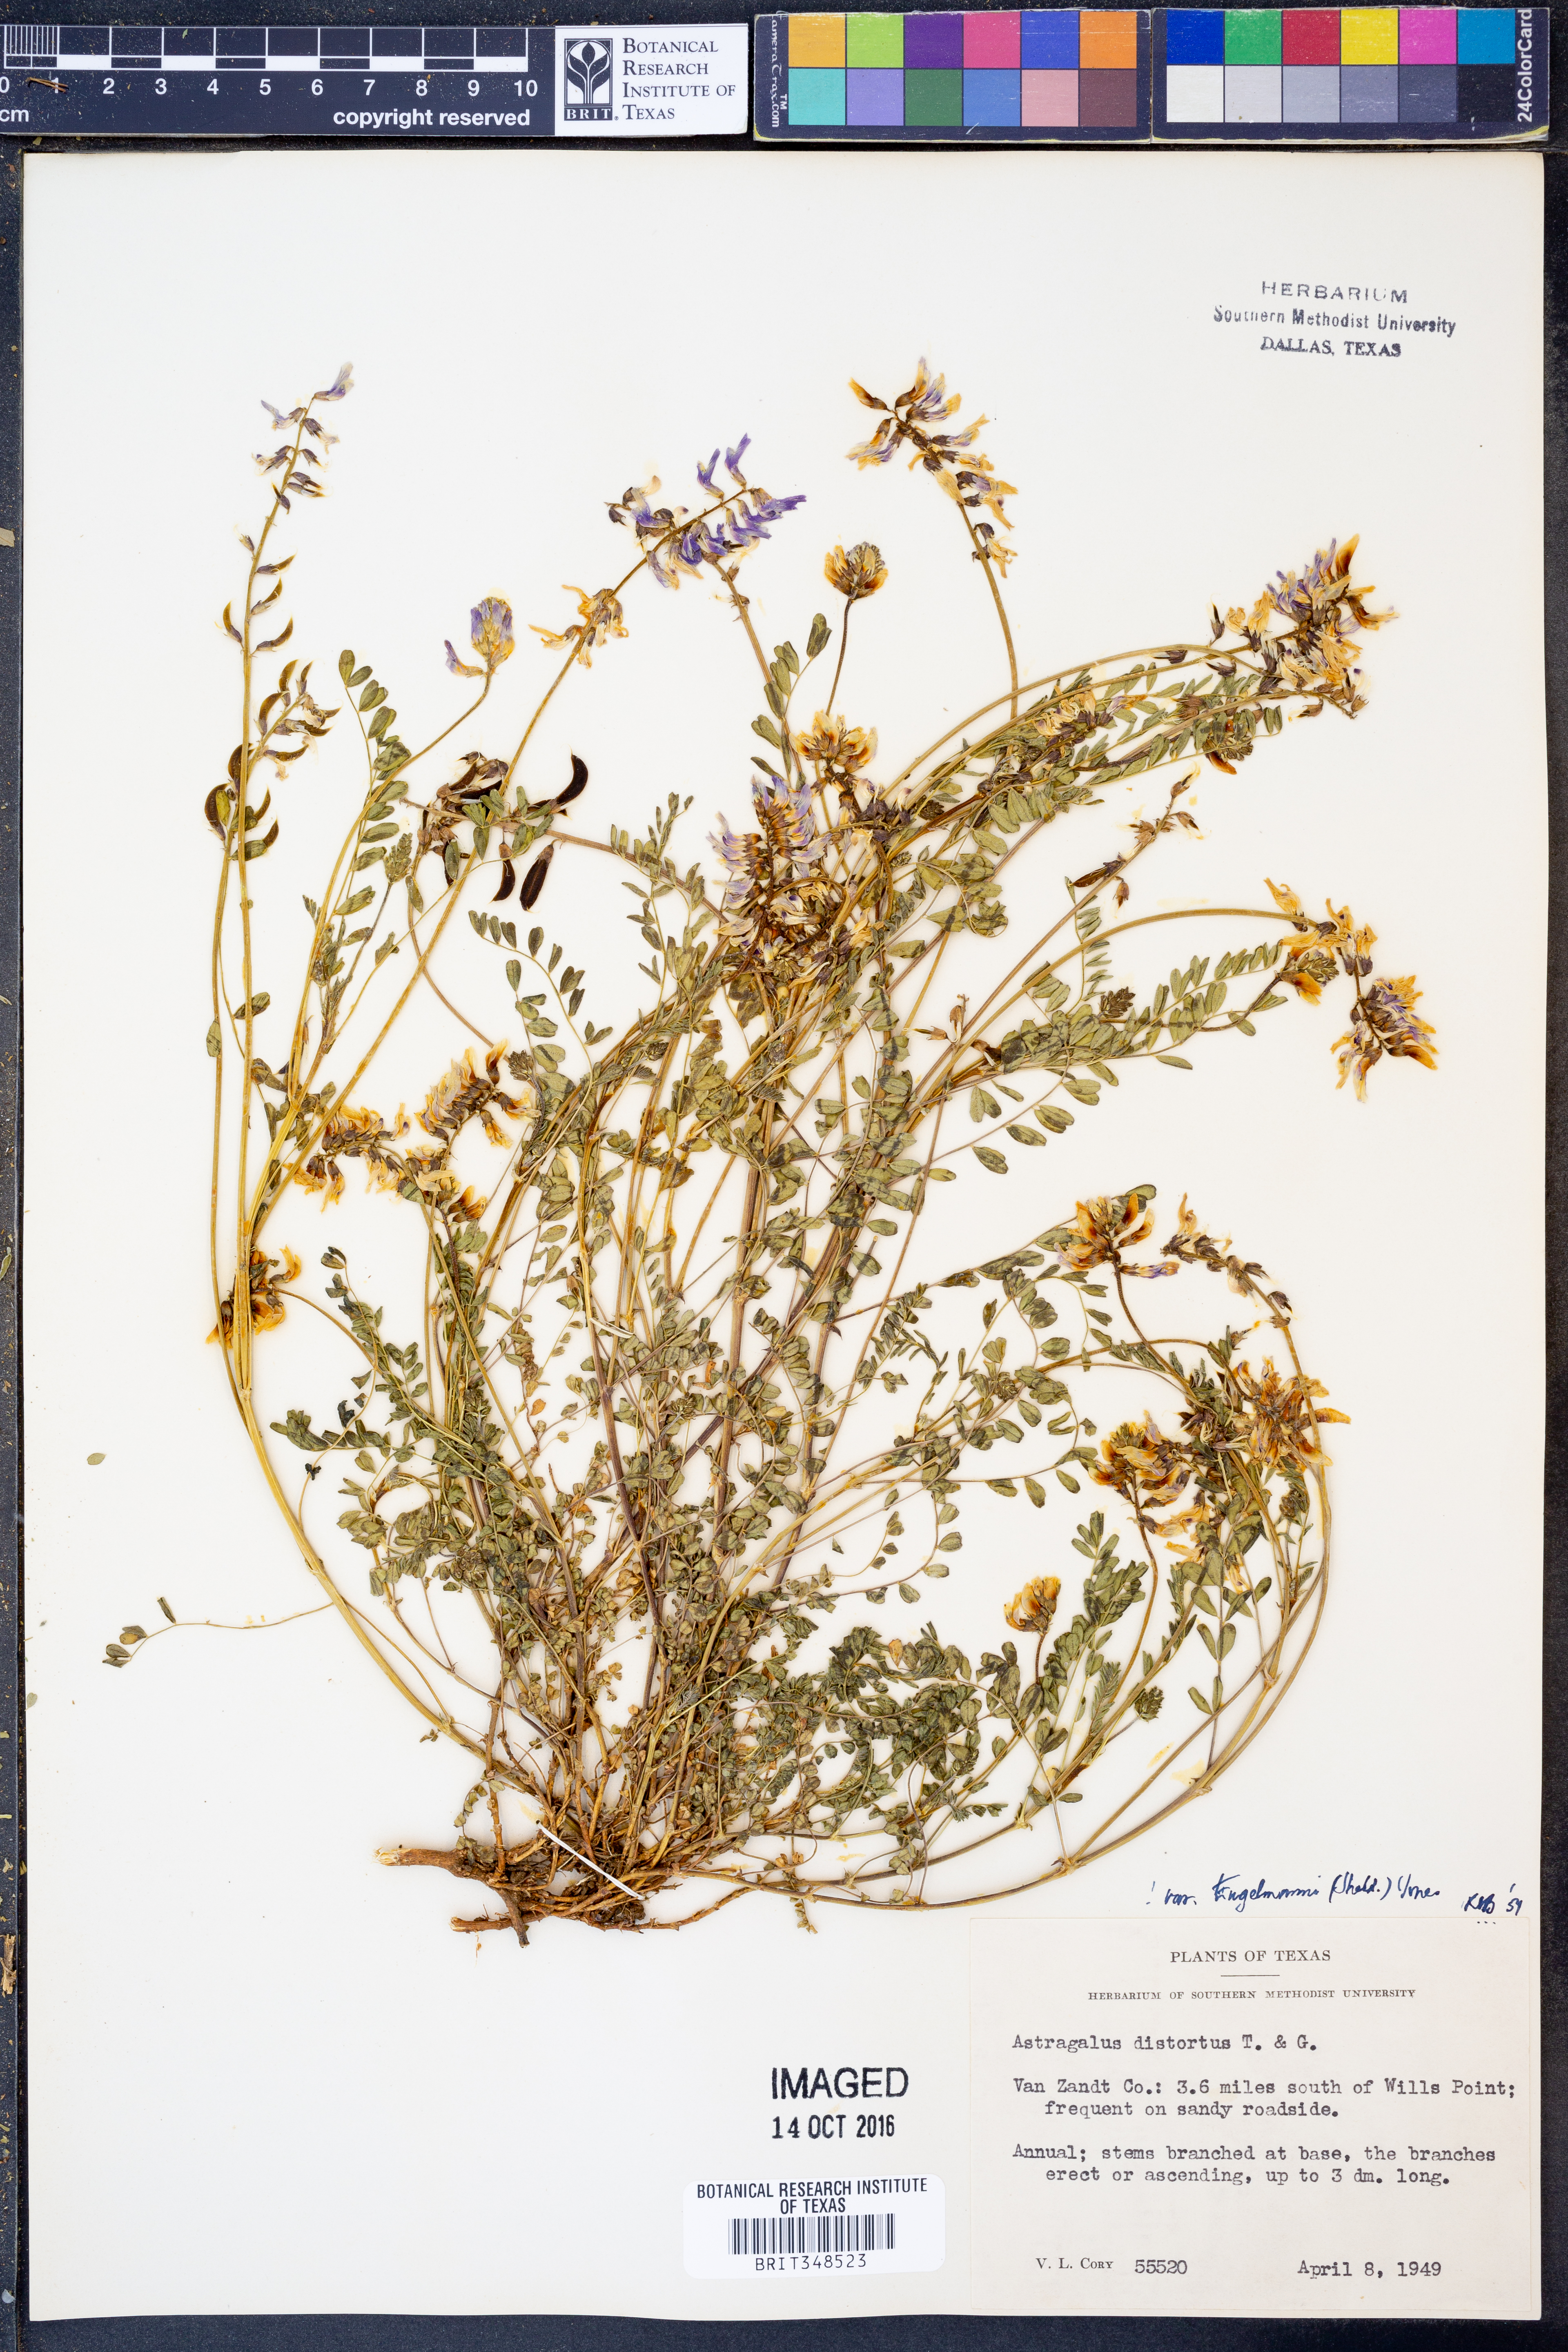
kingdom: Plantae
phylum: Tracheophyta
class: Magnoliopsida
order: Fabales
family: Fabaceae
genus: Astragalus
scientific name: Astragalus distortus
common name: Ozark milk-vetch
